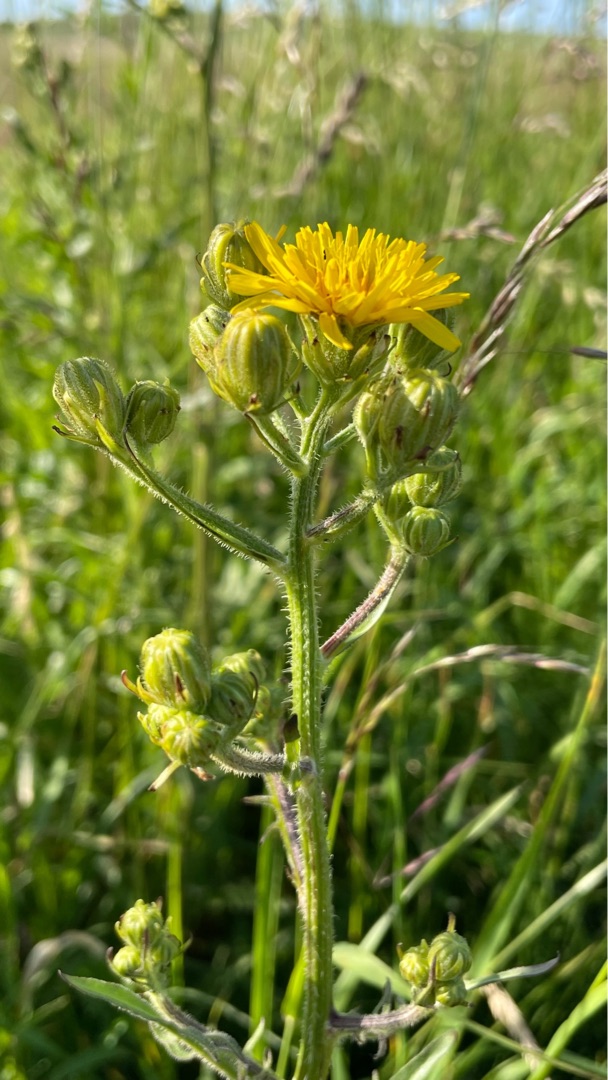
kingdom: Plantae
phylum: Tracheophyta
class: Magnoliopsida
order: Asterales
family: Asteraceae
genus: Crepis
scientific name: Crepis biennis
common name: Toårig høgeskæg
